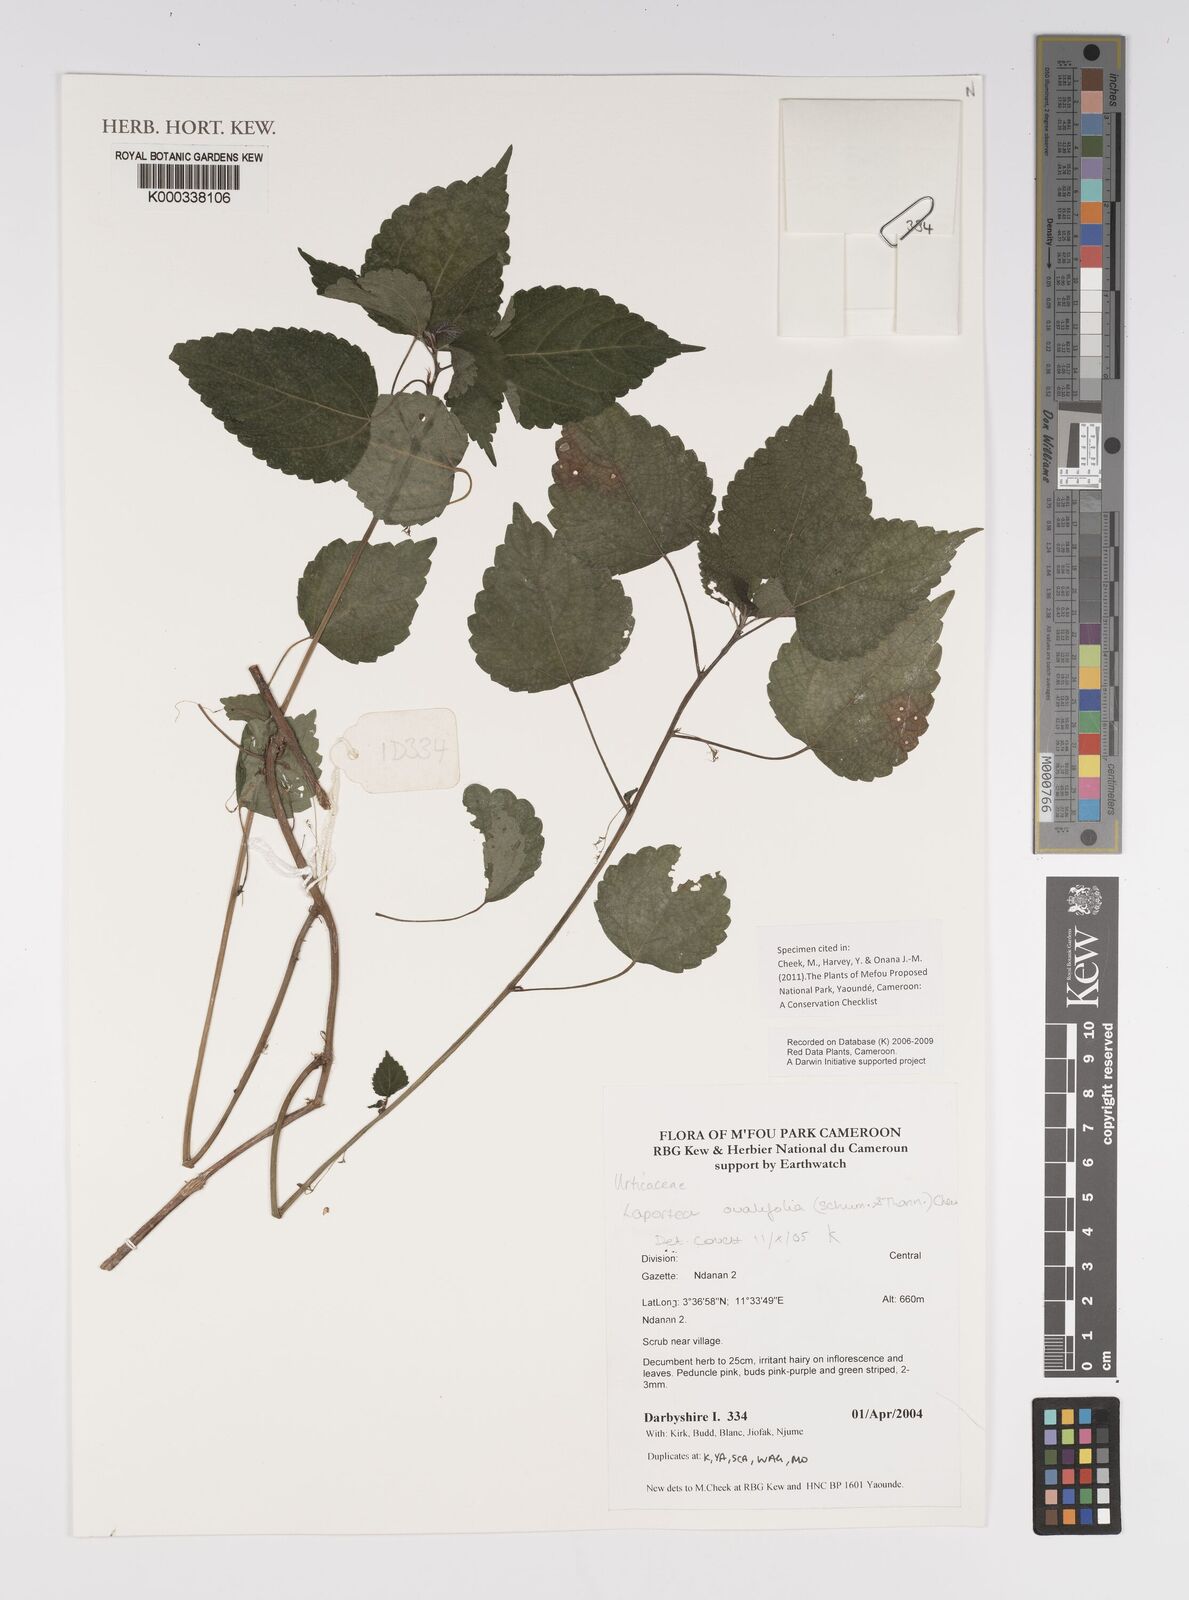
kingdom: Plantae
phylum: Tracheophyta
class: Magnoliopsida
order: Rosales
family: Urticaceae
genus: Laportea
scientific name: Laportea ovalifolia
